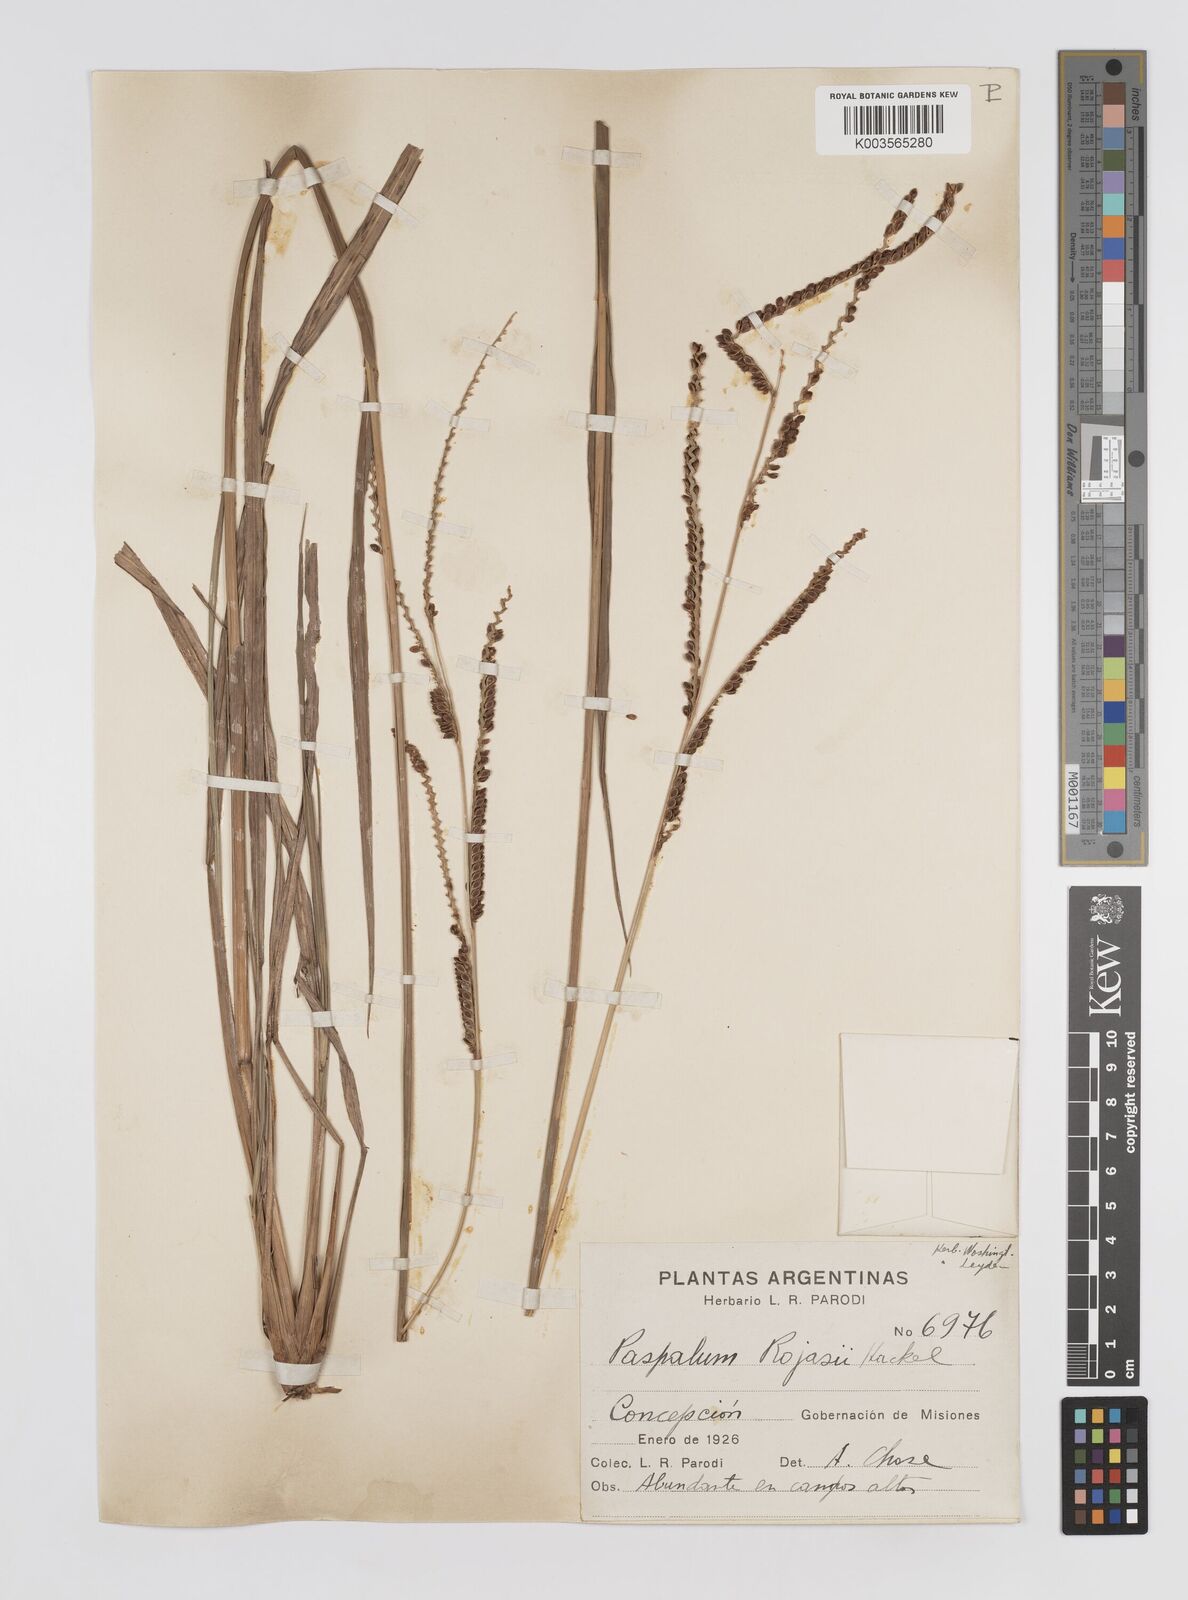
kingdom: Plantae
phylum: Tracheophyta
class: Liliopsida
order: Poales
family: Poaceae
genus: Paspalum
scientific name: Paspalum guenoarum
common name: Wintergreen paspalum
